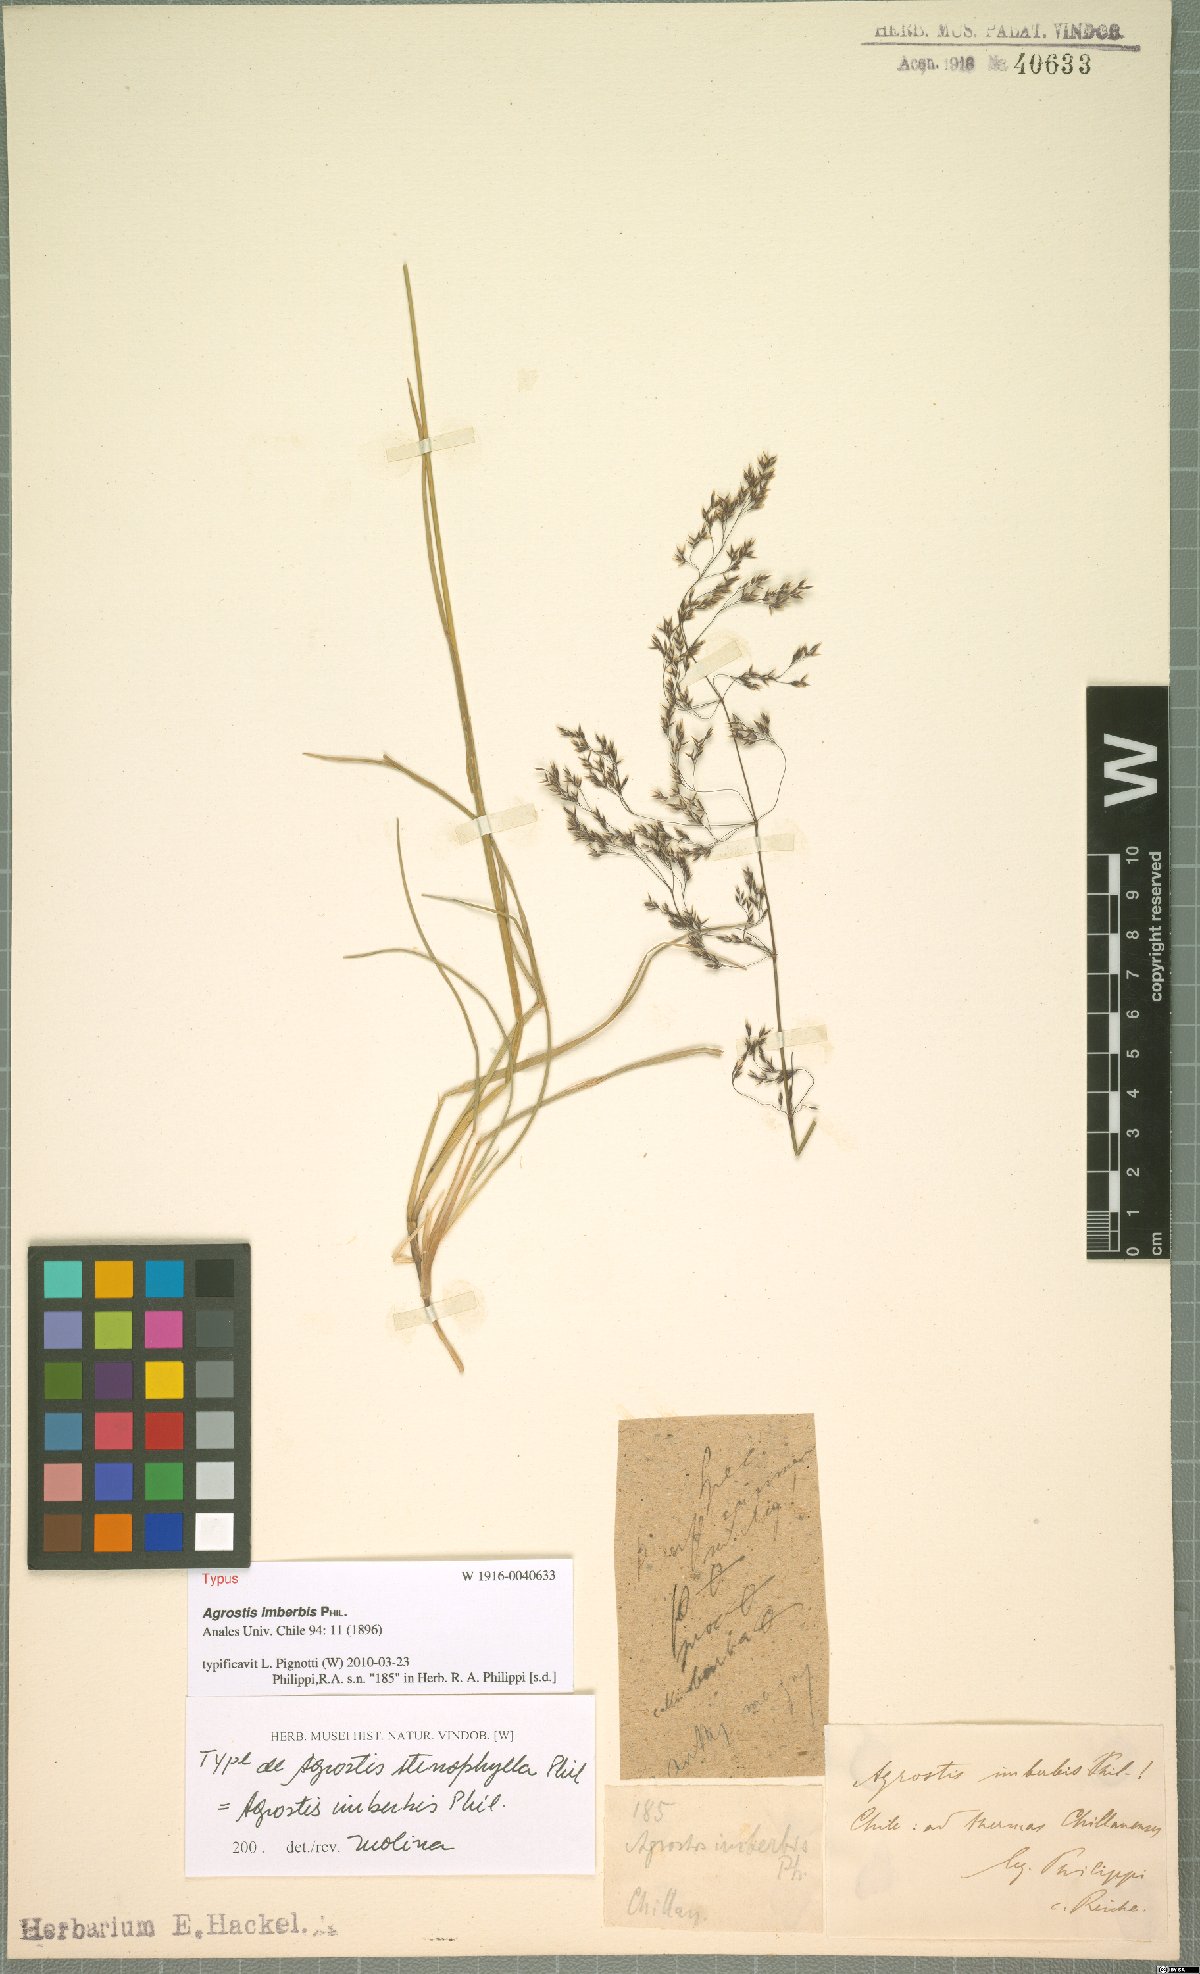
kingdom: Plantae
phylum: Tracheophyta
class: Liliopsida
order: Poales
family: Poaceae
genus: Agrostis
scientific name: Agrostis imberbis
